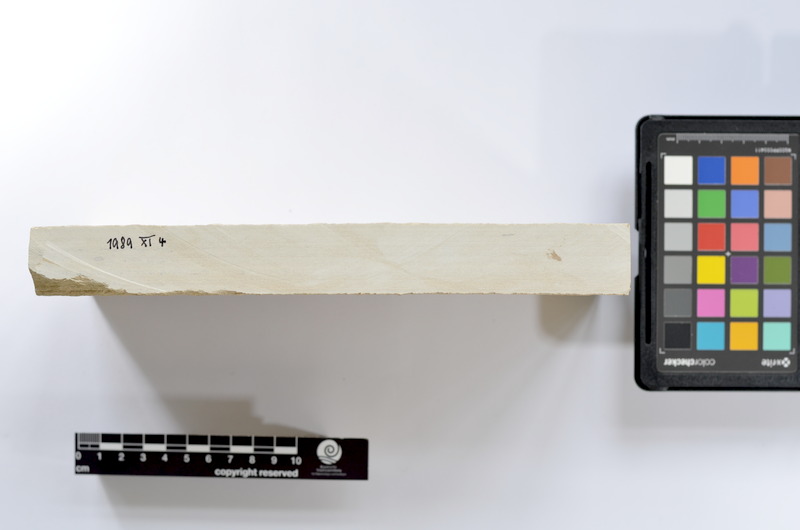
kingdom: Animalia
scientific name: Animalia
